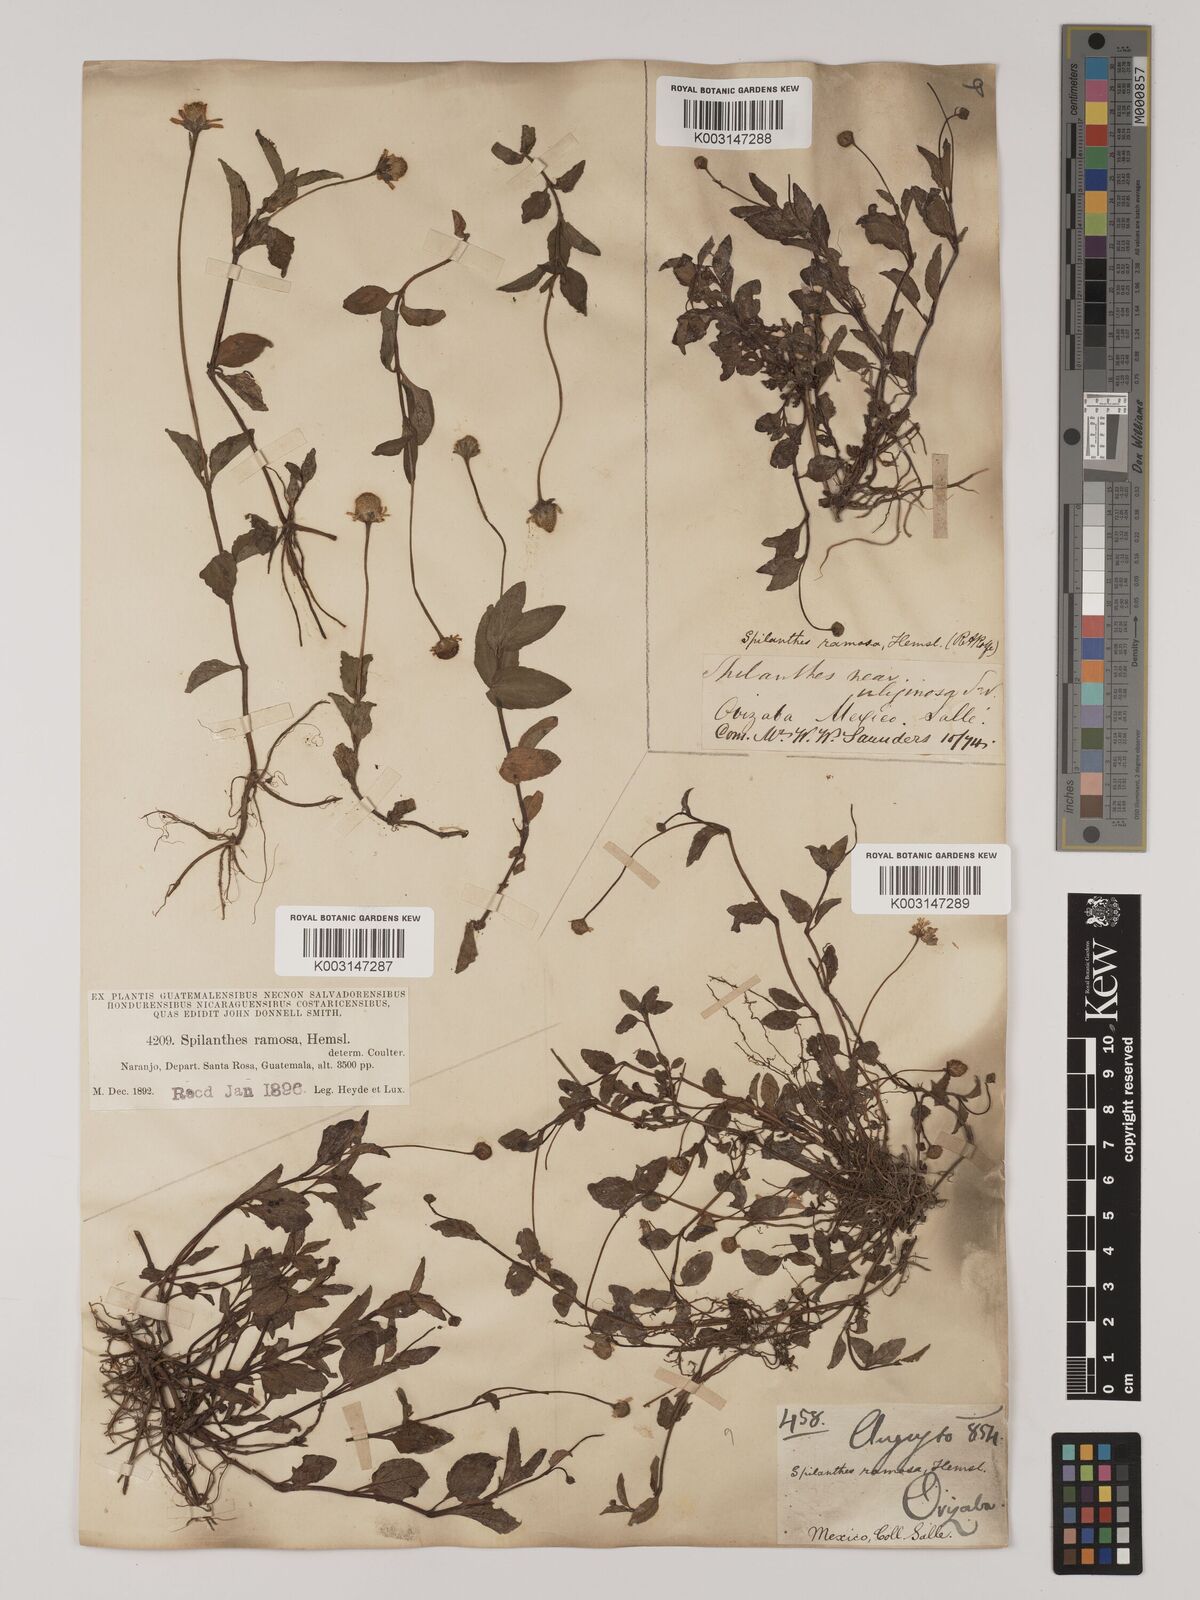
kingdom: Plantae
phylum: Tracheophyta
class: Magnoliopsida
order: Asterales
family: Asteraceae
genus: Acmella
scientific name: Acmella ramosa
